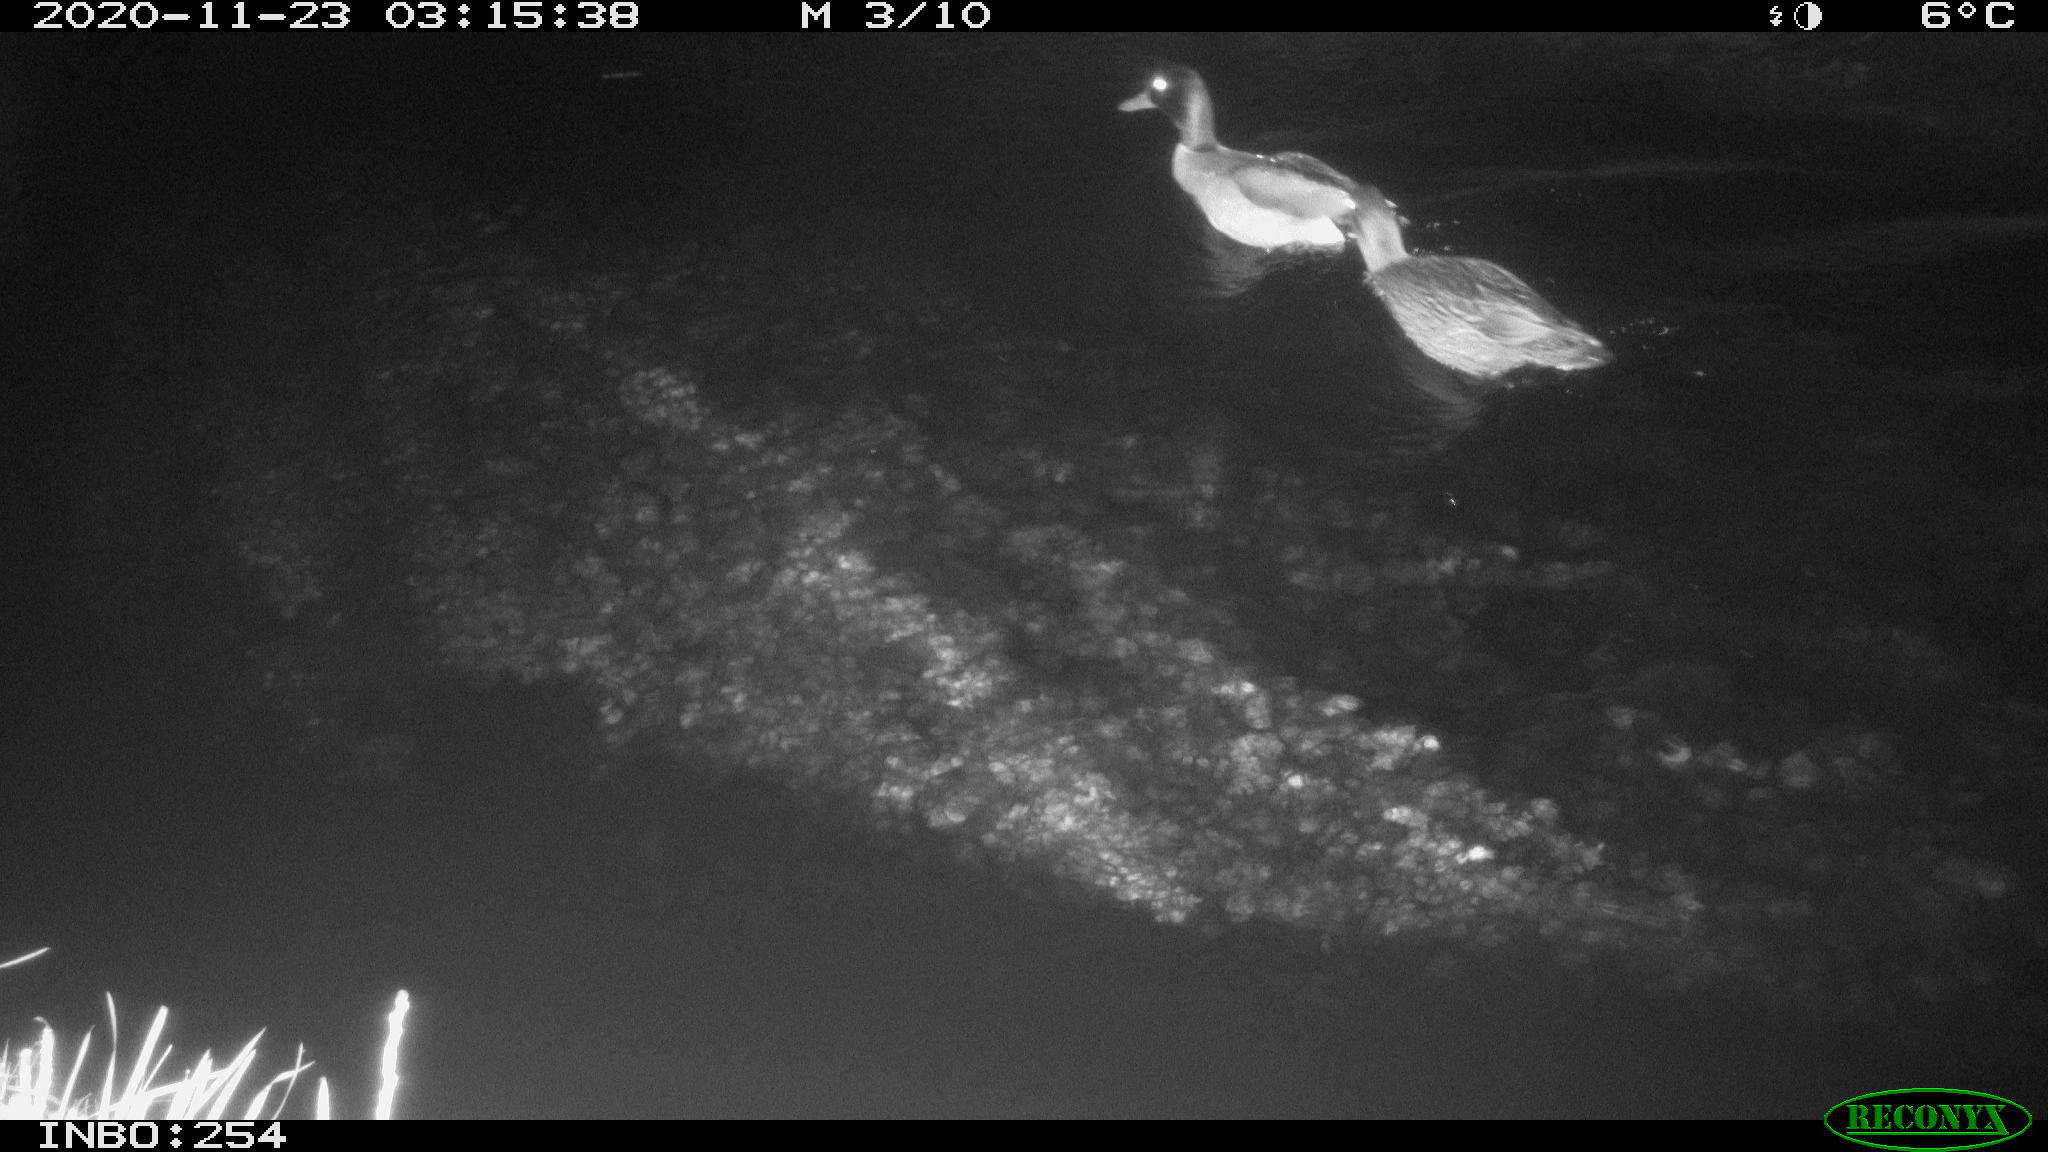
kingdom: Animalia
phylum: Chordata
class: Aves
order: Anseriformes
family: Anatidae
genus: Anas
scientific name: Anas platyrhynchos
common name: Mallard
